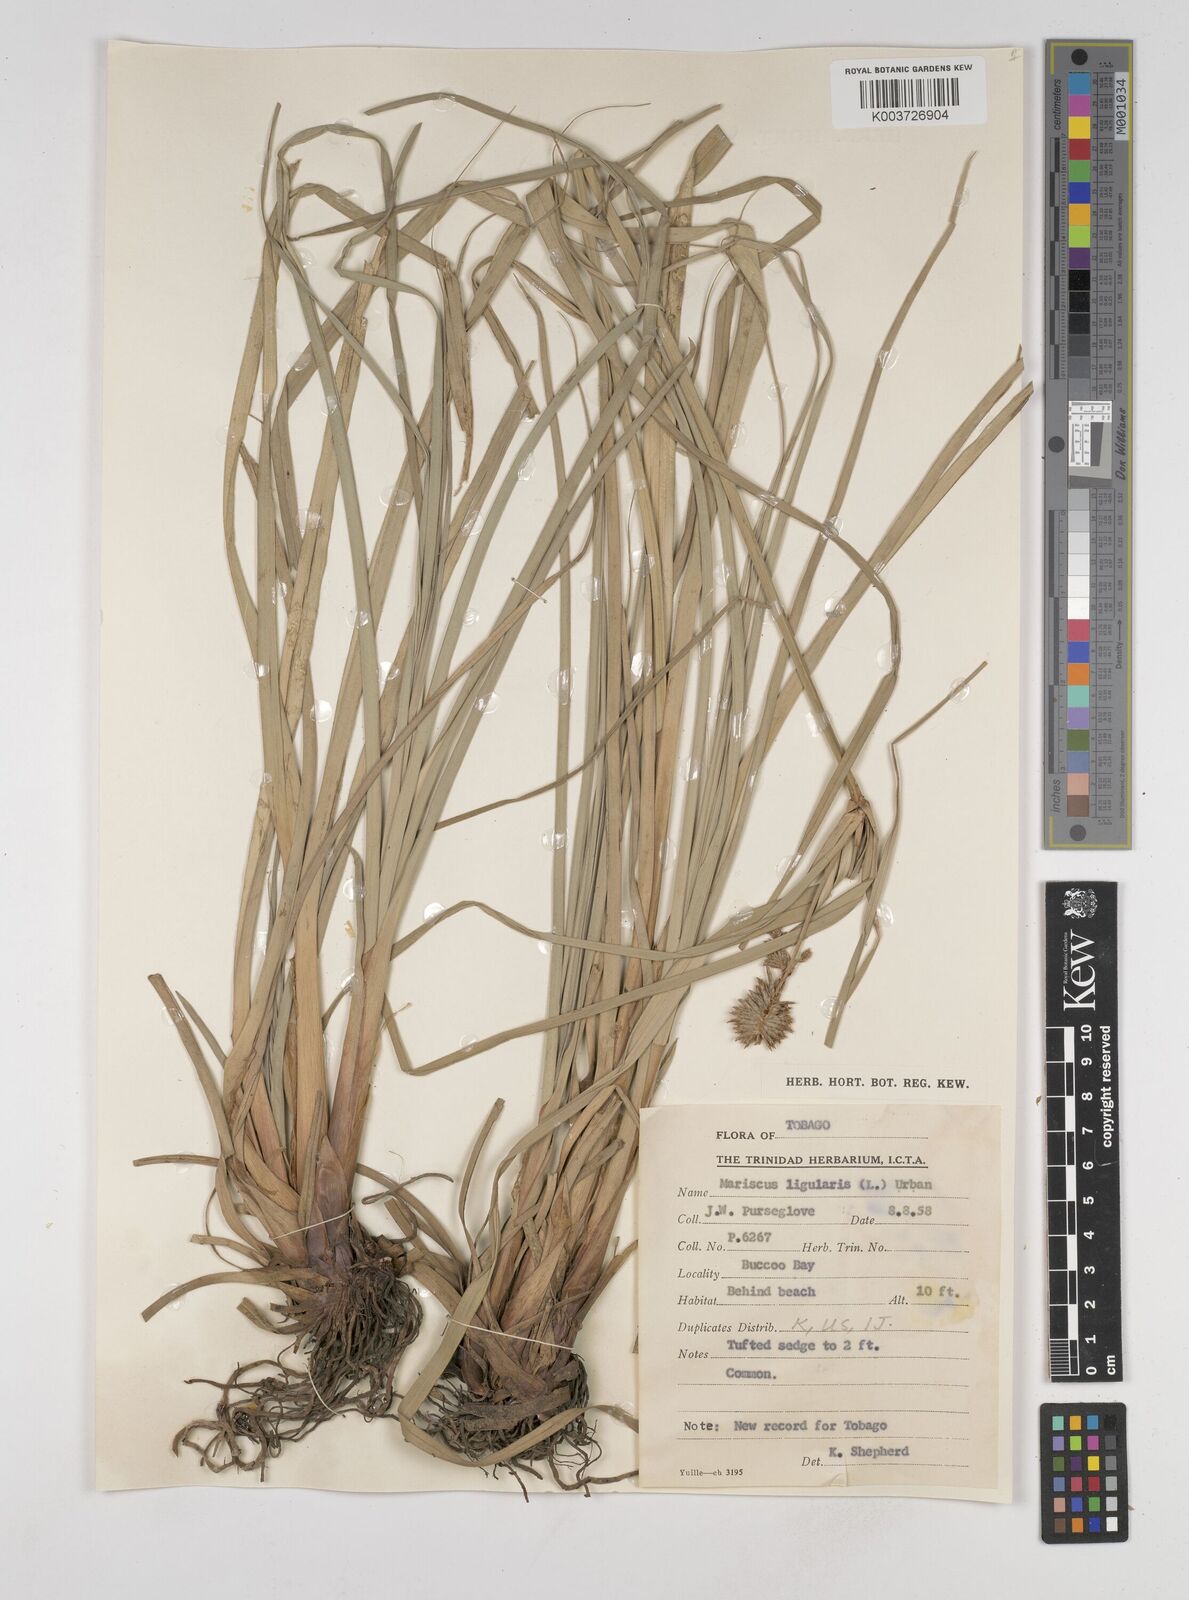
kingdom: Plantae
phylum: Tracheophyta
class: Liliopsida
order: Poales
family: Cyperaceae
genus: Cyperus
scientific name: Cyperus ligularis
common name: Swamp flat sedge
